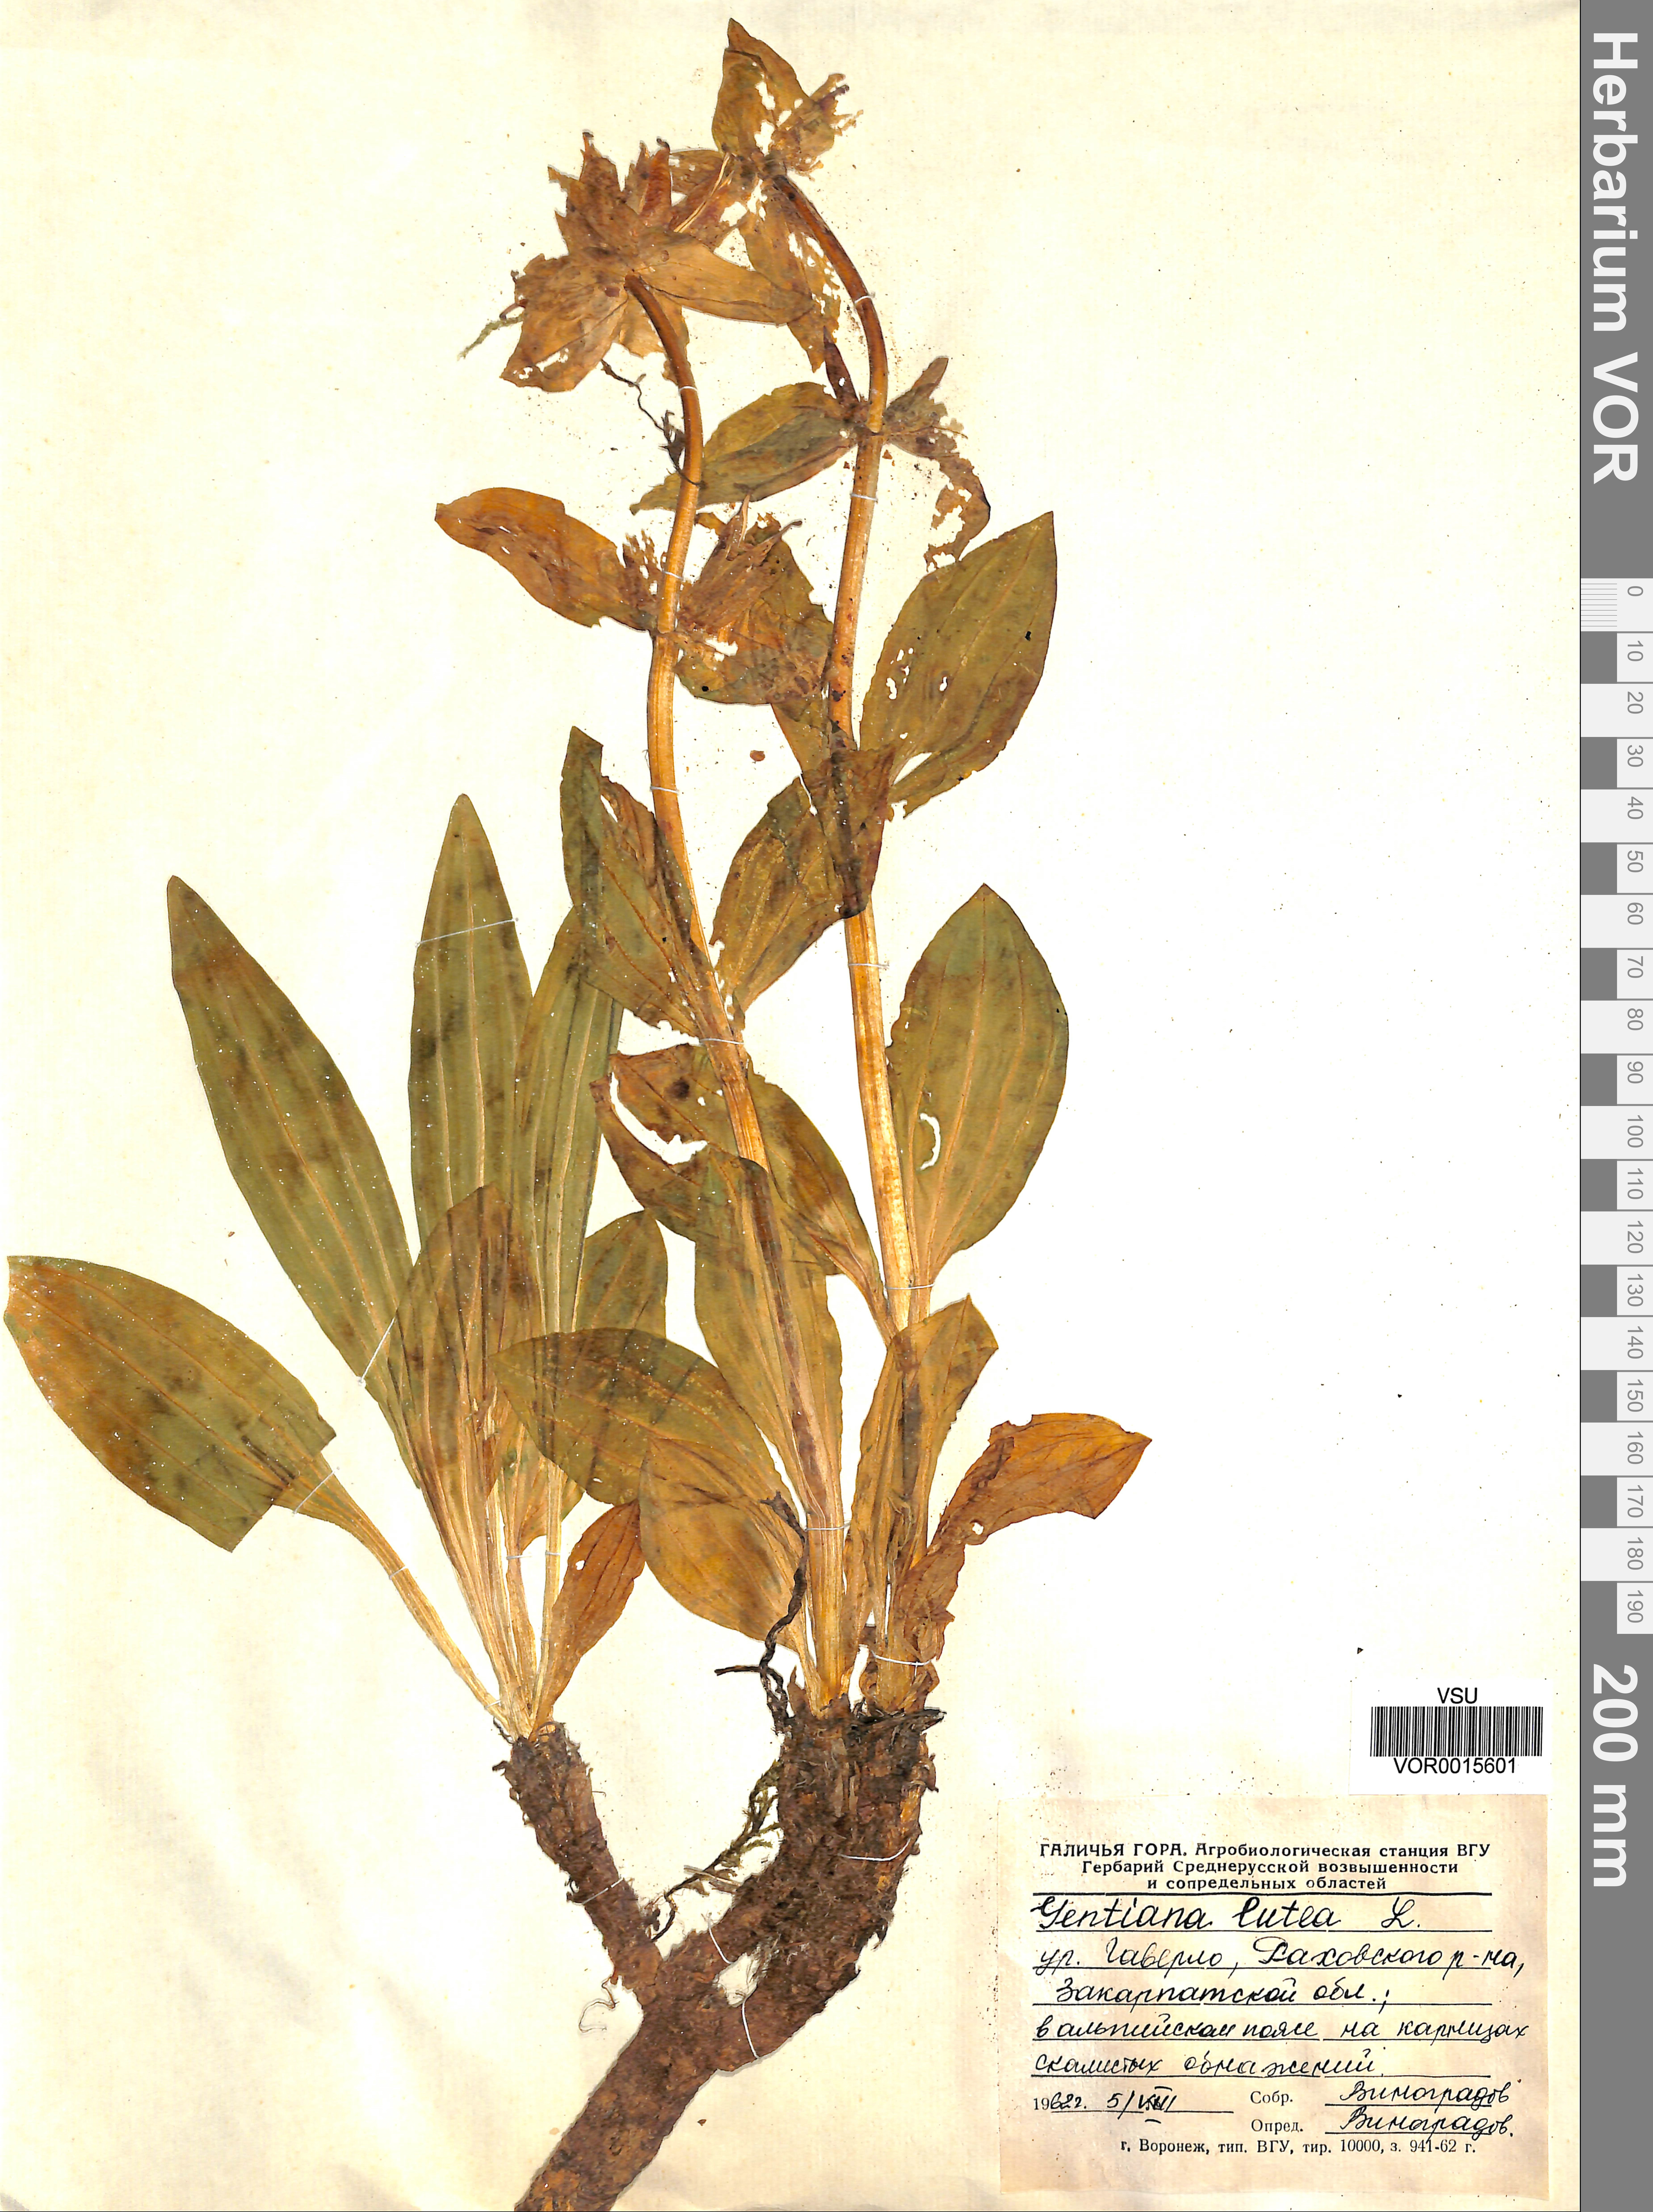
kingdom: Plantae
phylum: Tracheophyta
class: Magnoliopsida
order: Gentianales
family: Gentianaceae
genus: Gentiana
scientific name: Gentiana lutea
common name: Great yellow gentian
